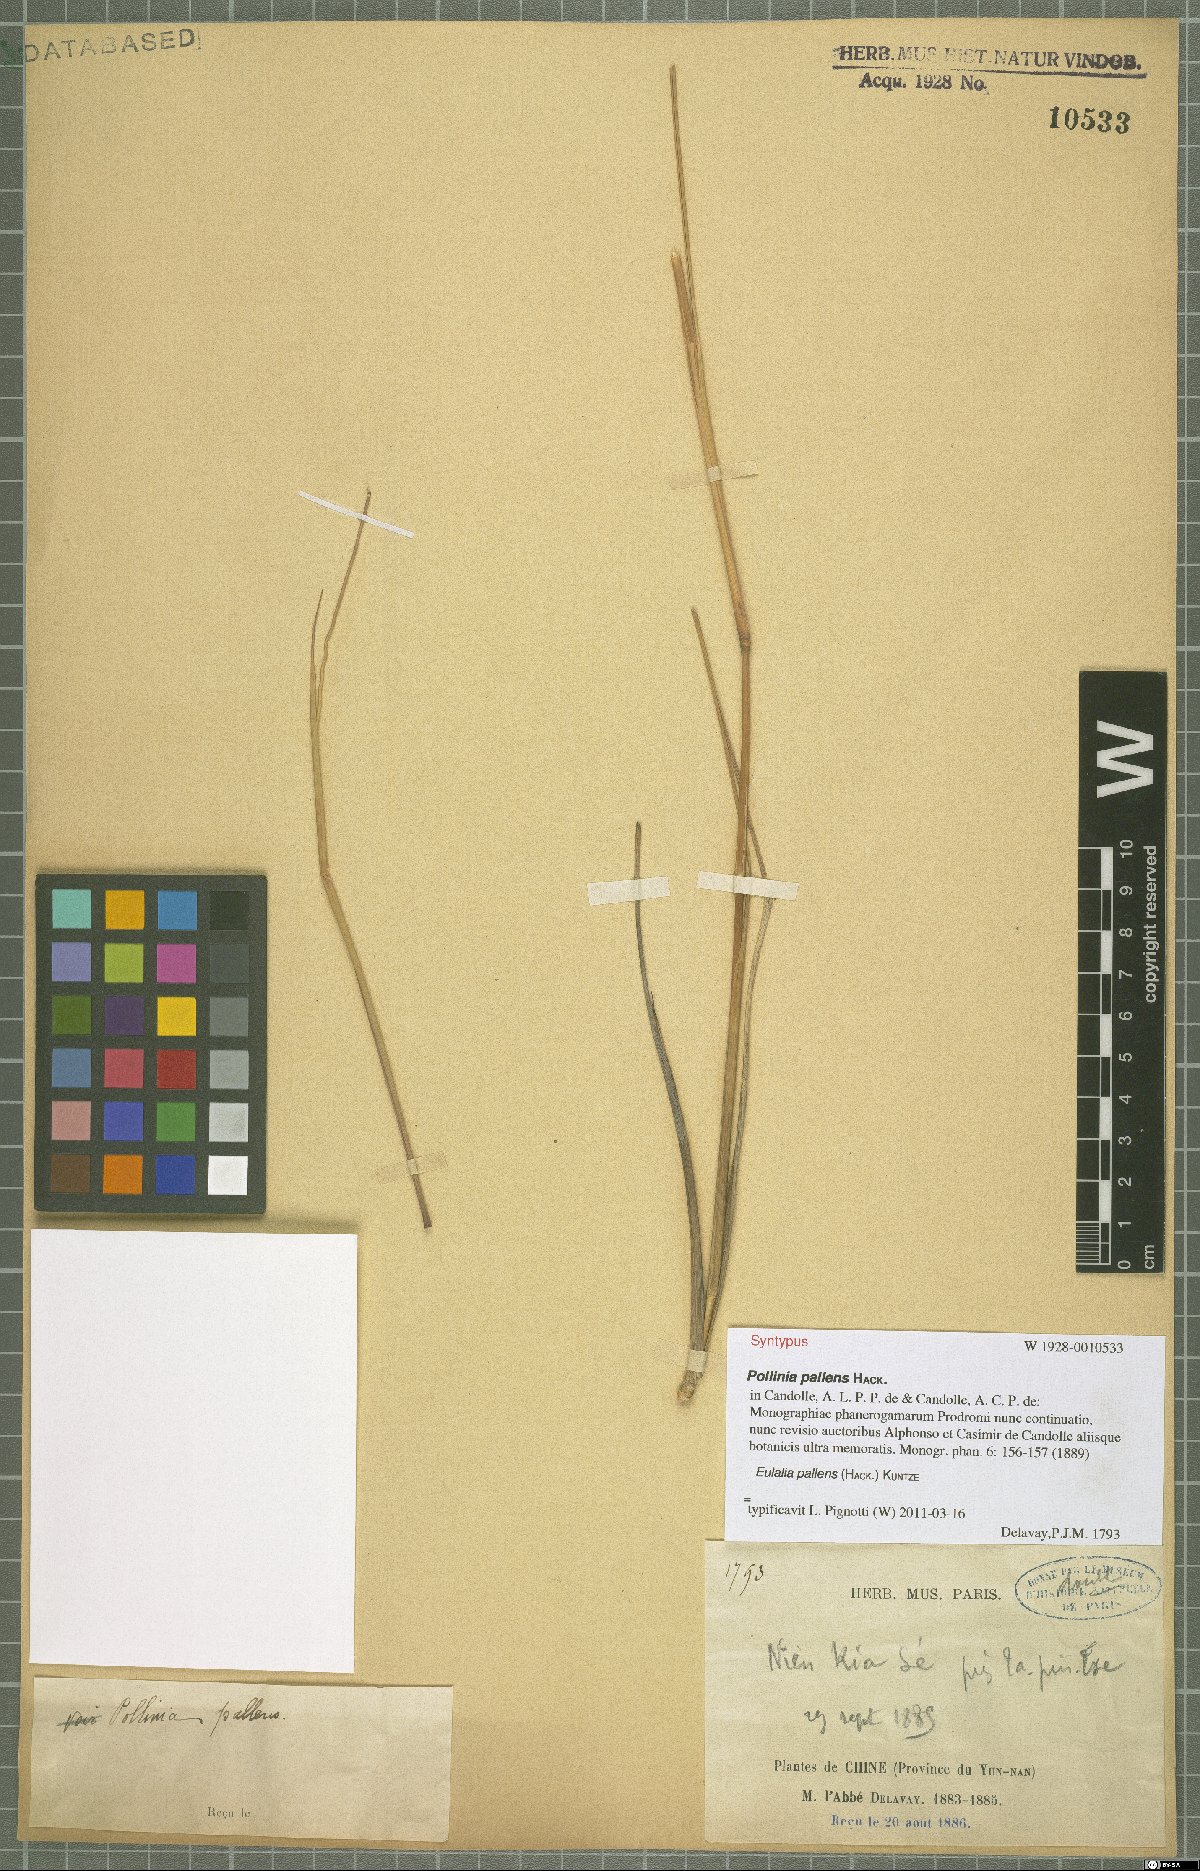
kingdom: Plantae
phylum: Tracheophyta
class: Liliopsida
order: Poales
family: Poaceae
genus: Eulalia
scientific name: Eulalia pallens
